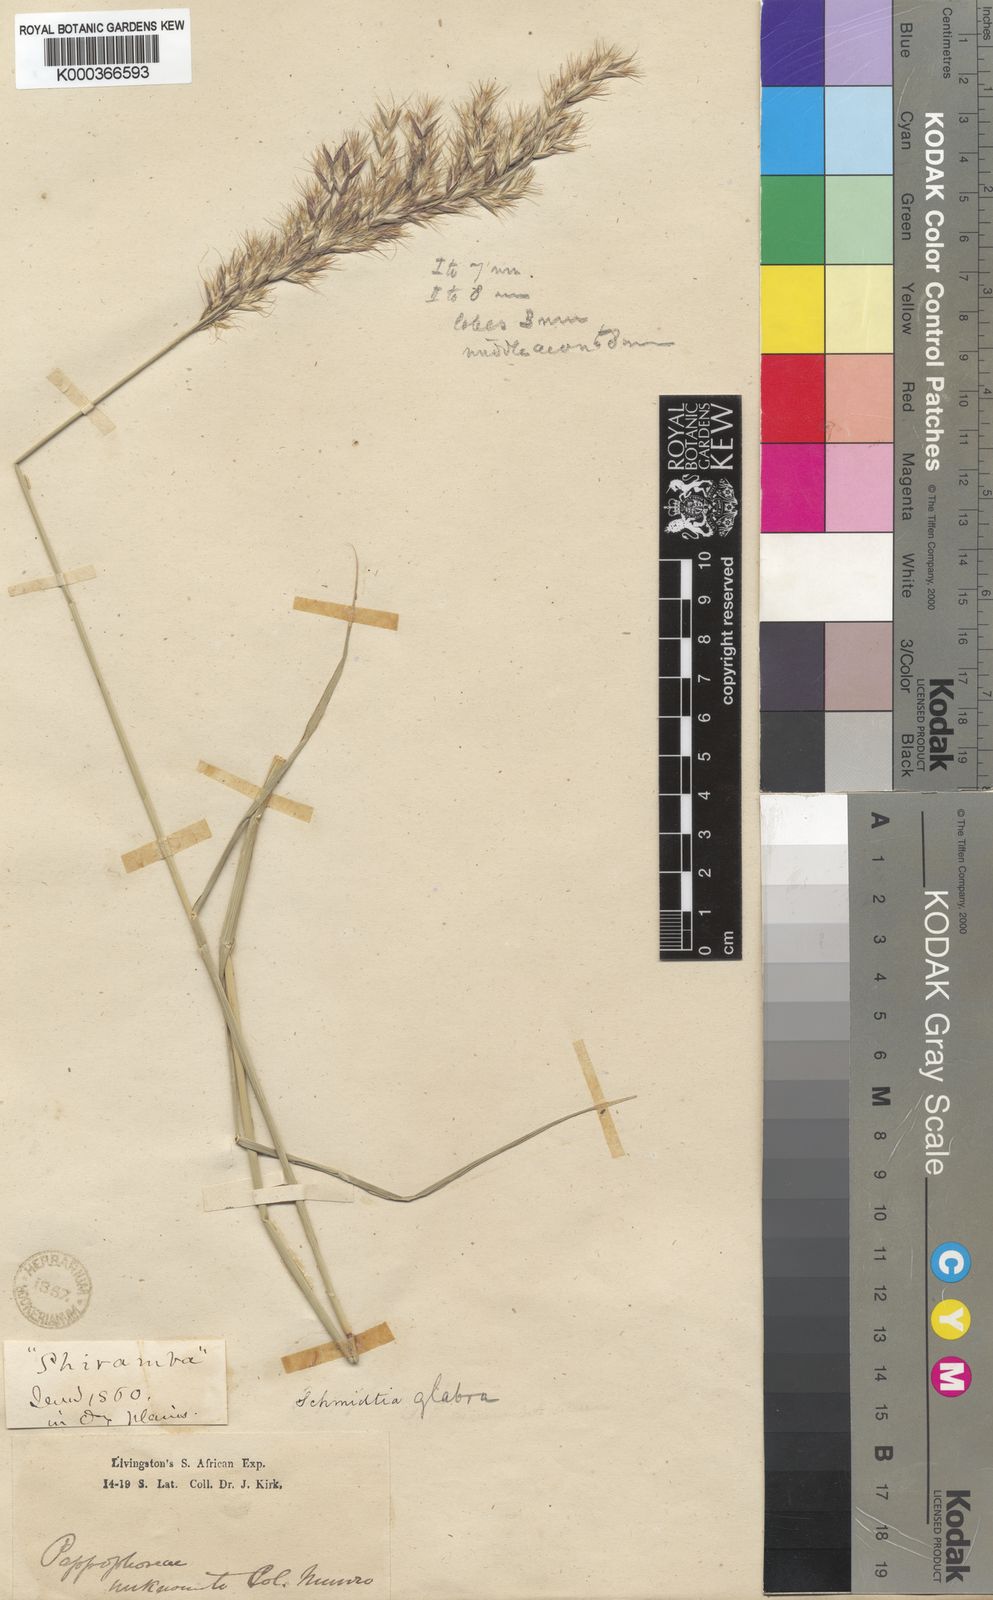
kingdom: Plantae
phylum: Tracheophyta
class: Liliopsida
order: Poales
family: Poaceae
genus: Schmidtia
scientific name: Schmidtia pappophoroides
